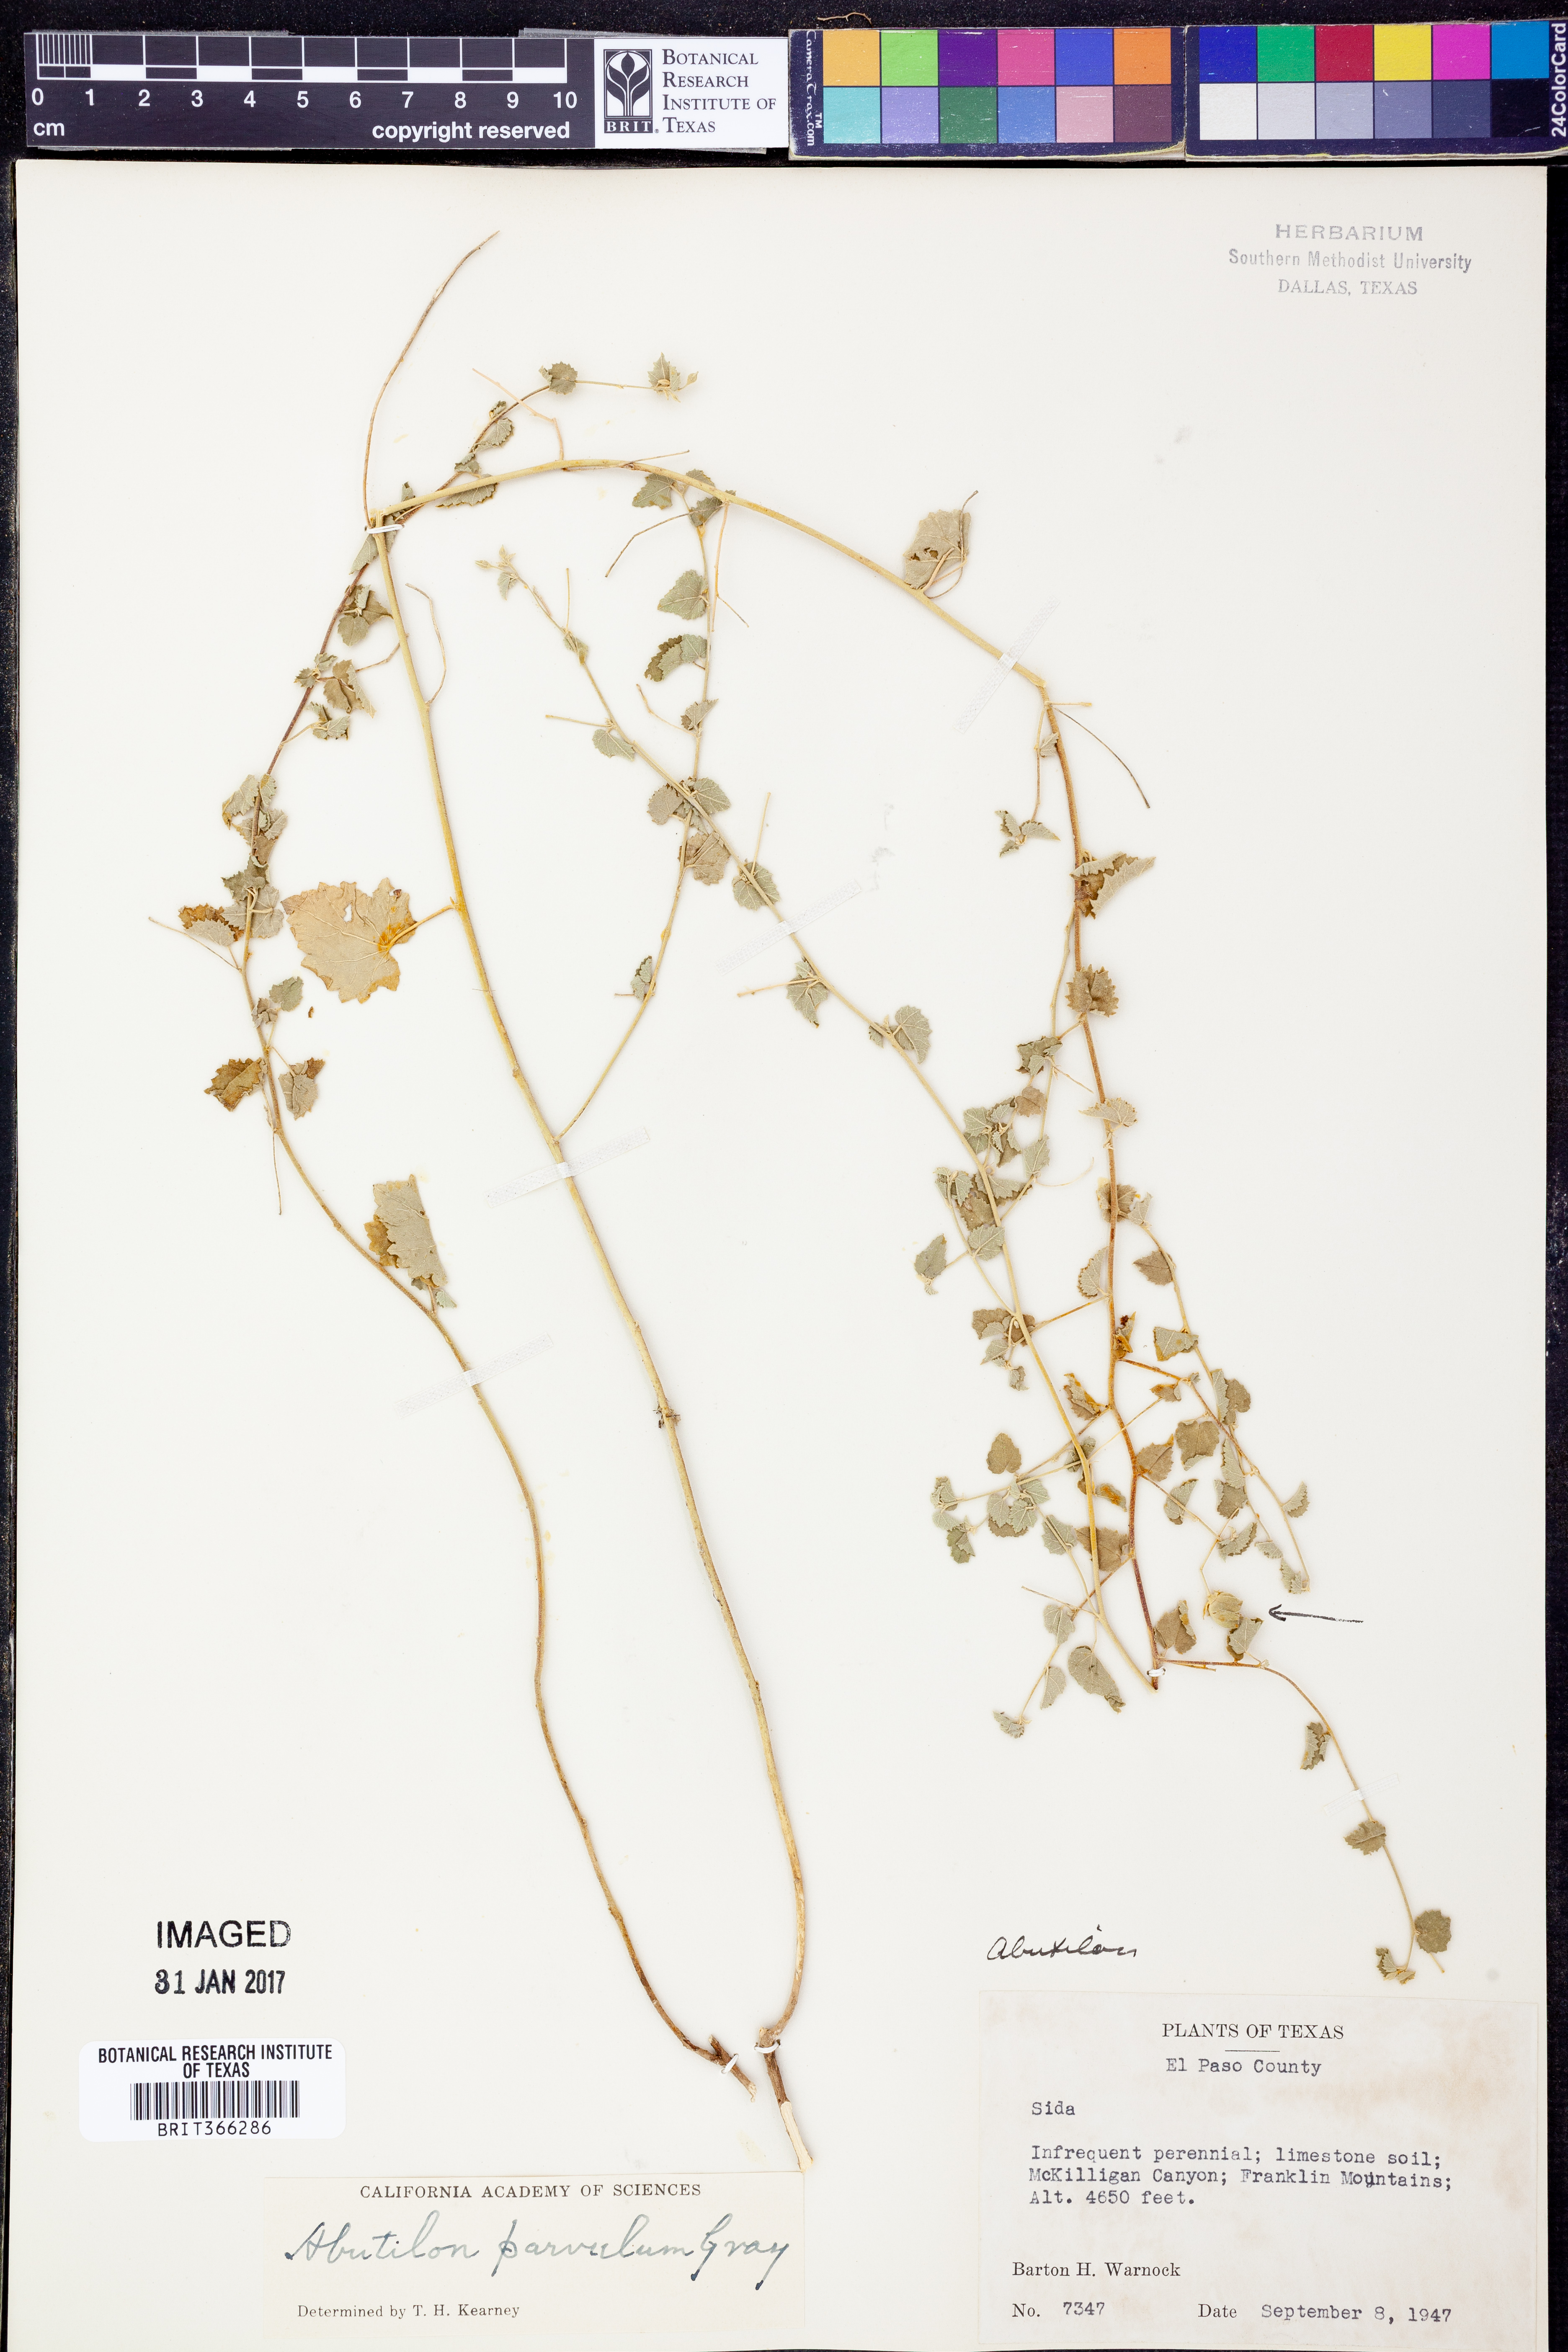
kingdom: Plantae
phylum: Tracheophyta
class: Magnoliopsida
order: Malvales
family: Malvaceae
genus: Abutilon
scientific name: Abutilon parvulum
